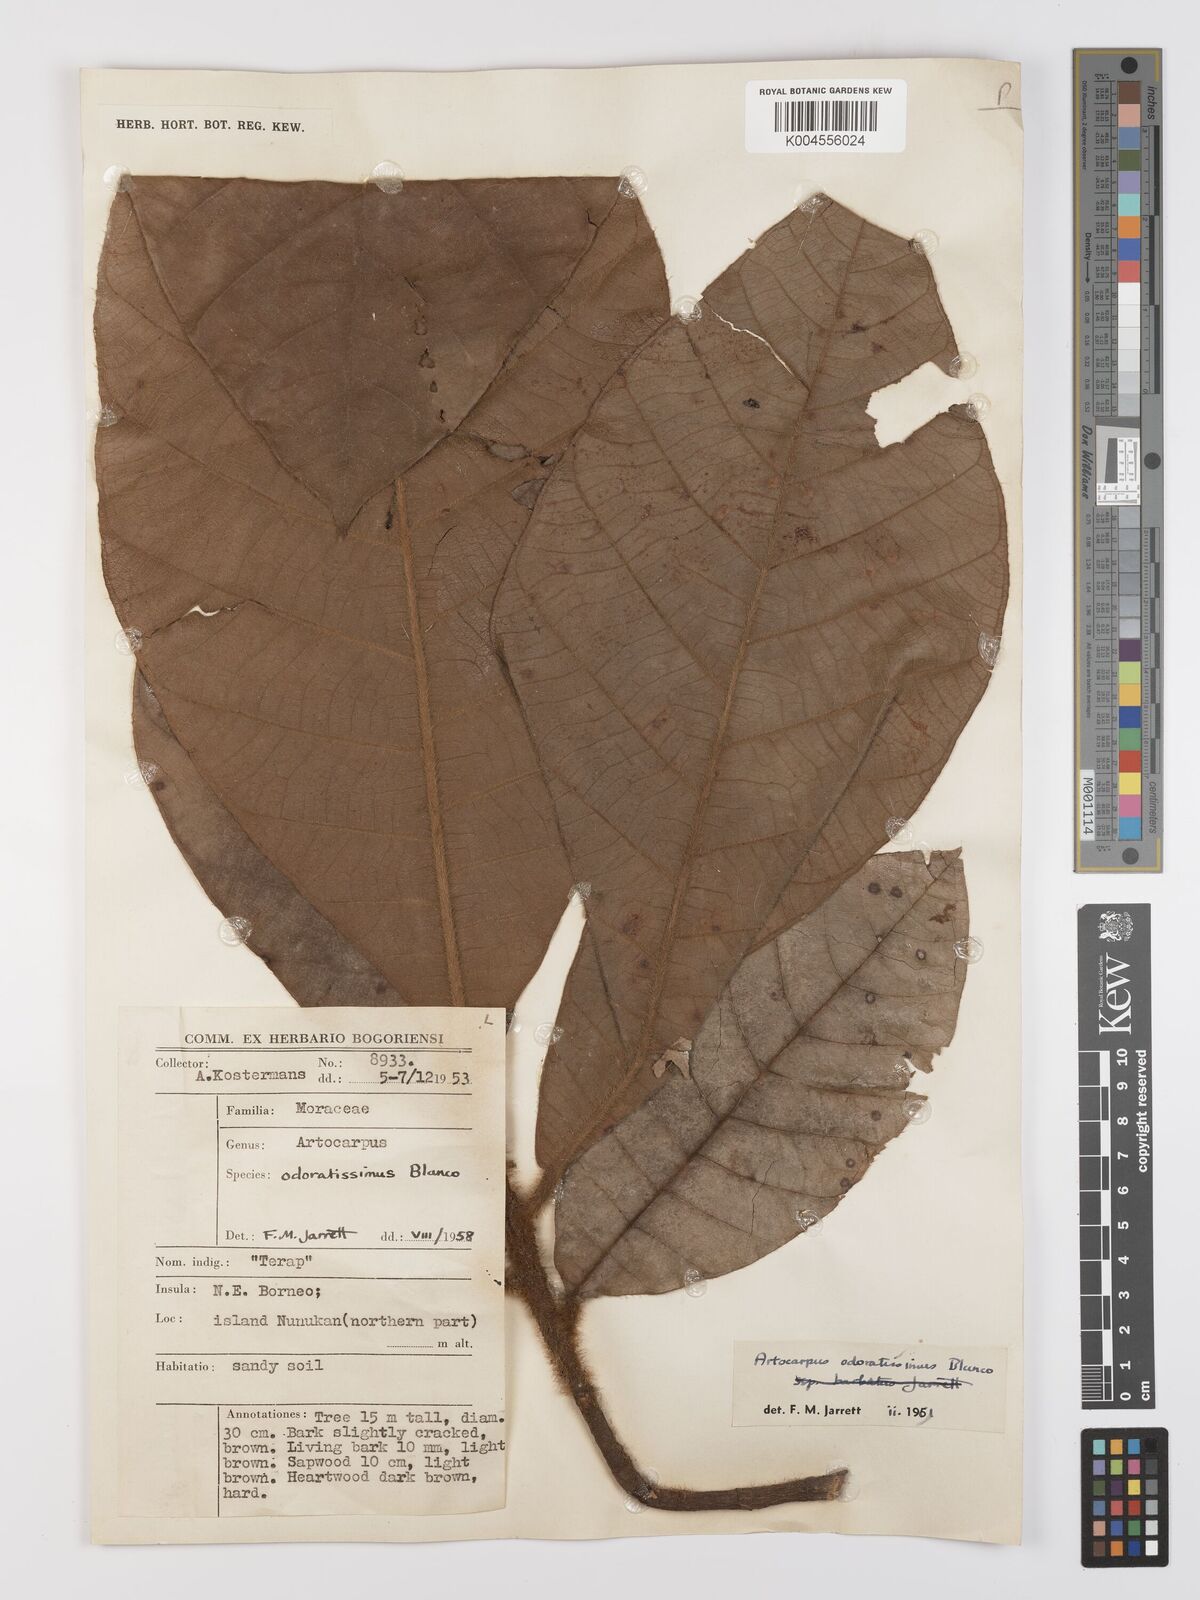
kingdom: Plantae
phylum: Tracheophyta
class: Magnoliopsida
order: Rosales
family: Moraceae
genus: Artocarpus
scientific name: Artocarpus odoratissimus
